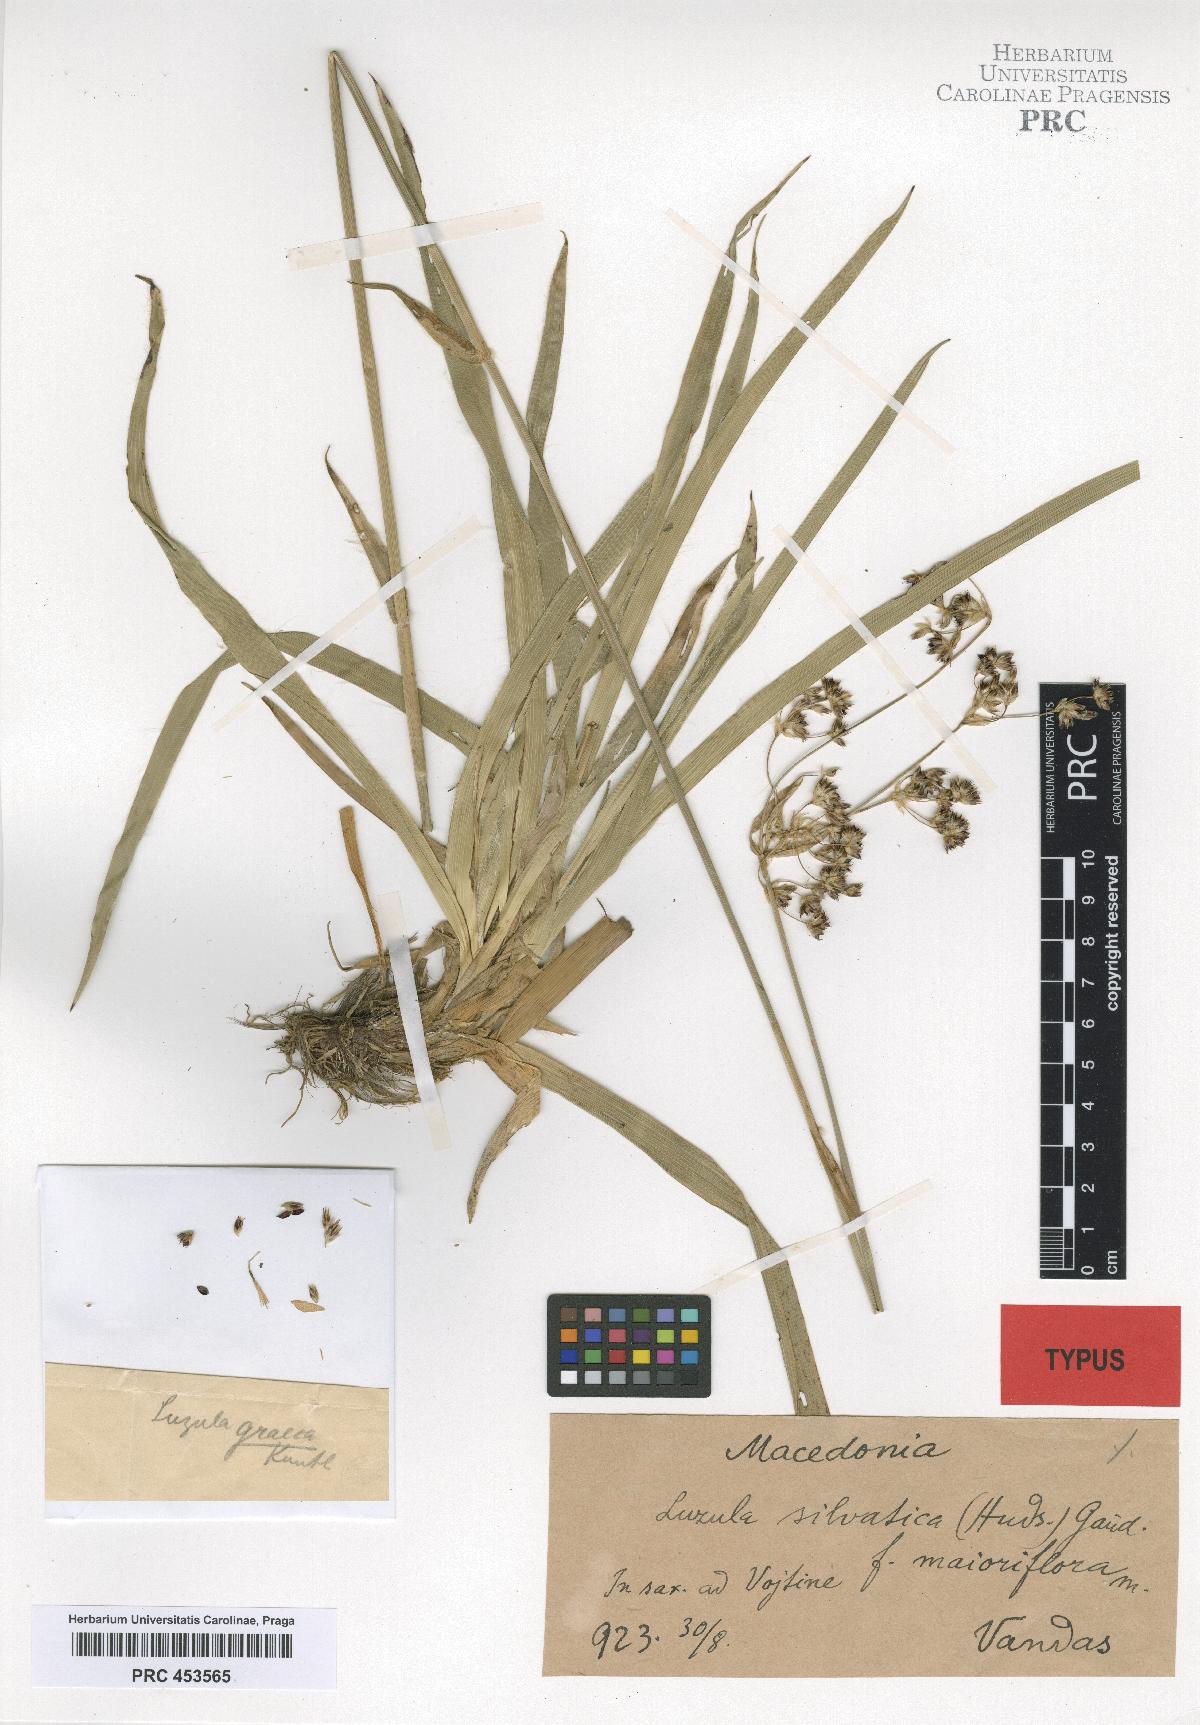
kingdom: Plantae
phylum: Tracheophyta
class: Liliopsida
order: Poales
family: Juncaceae
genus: Luzula
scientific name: Luzula sylvatica
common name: Great wood-rush
